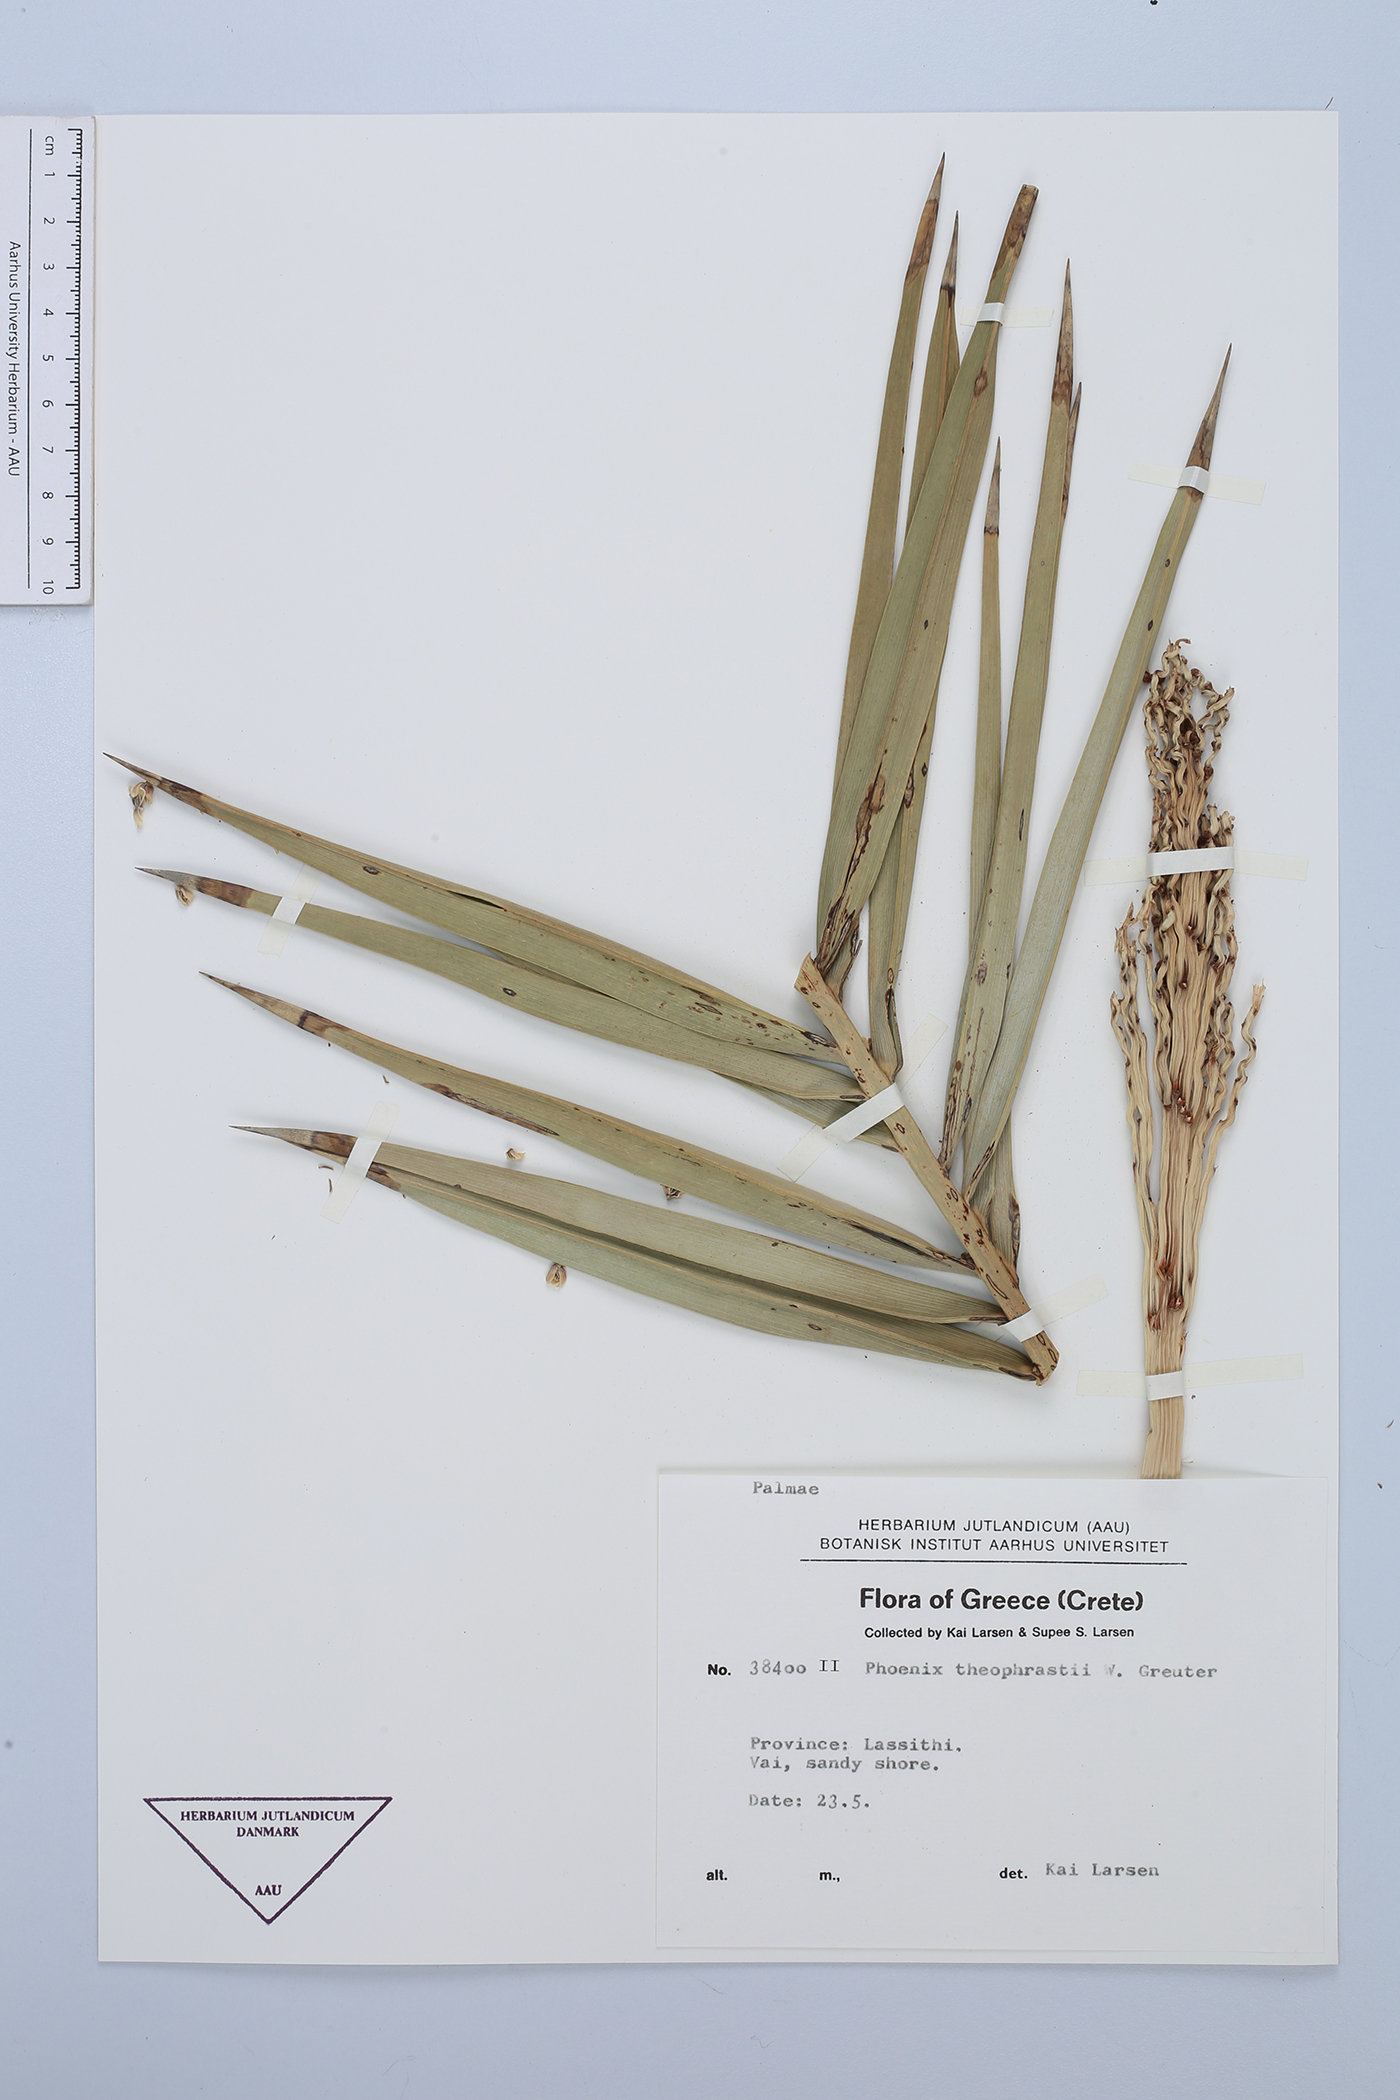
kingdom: Plantae
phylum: Tracheophyta
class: Liliopsida
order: Arecales
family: Arecaceae
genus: Phoenix
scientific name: Phoenix theophrasti
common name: Cretan date palm
